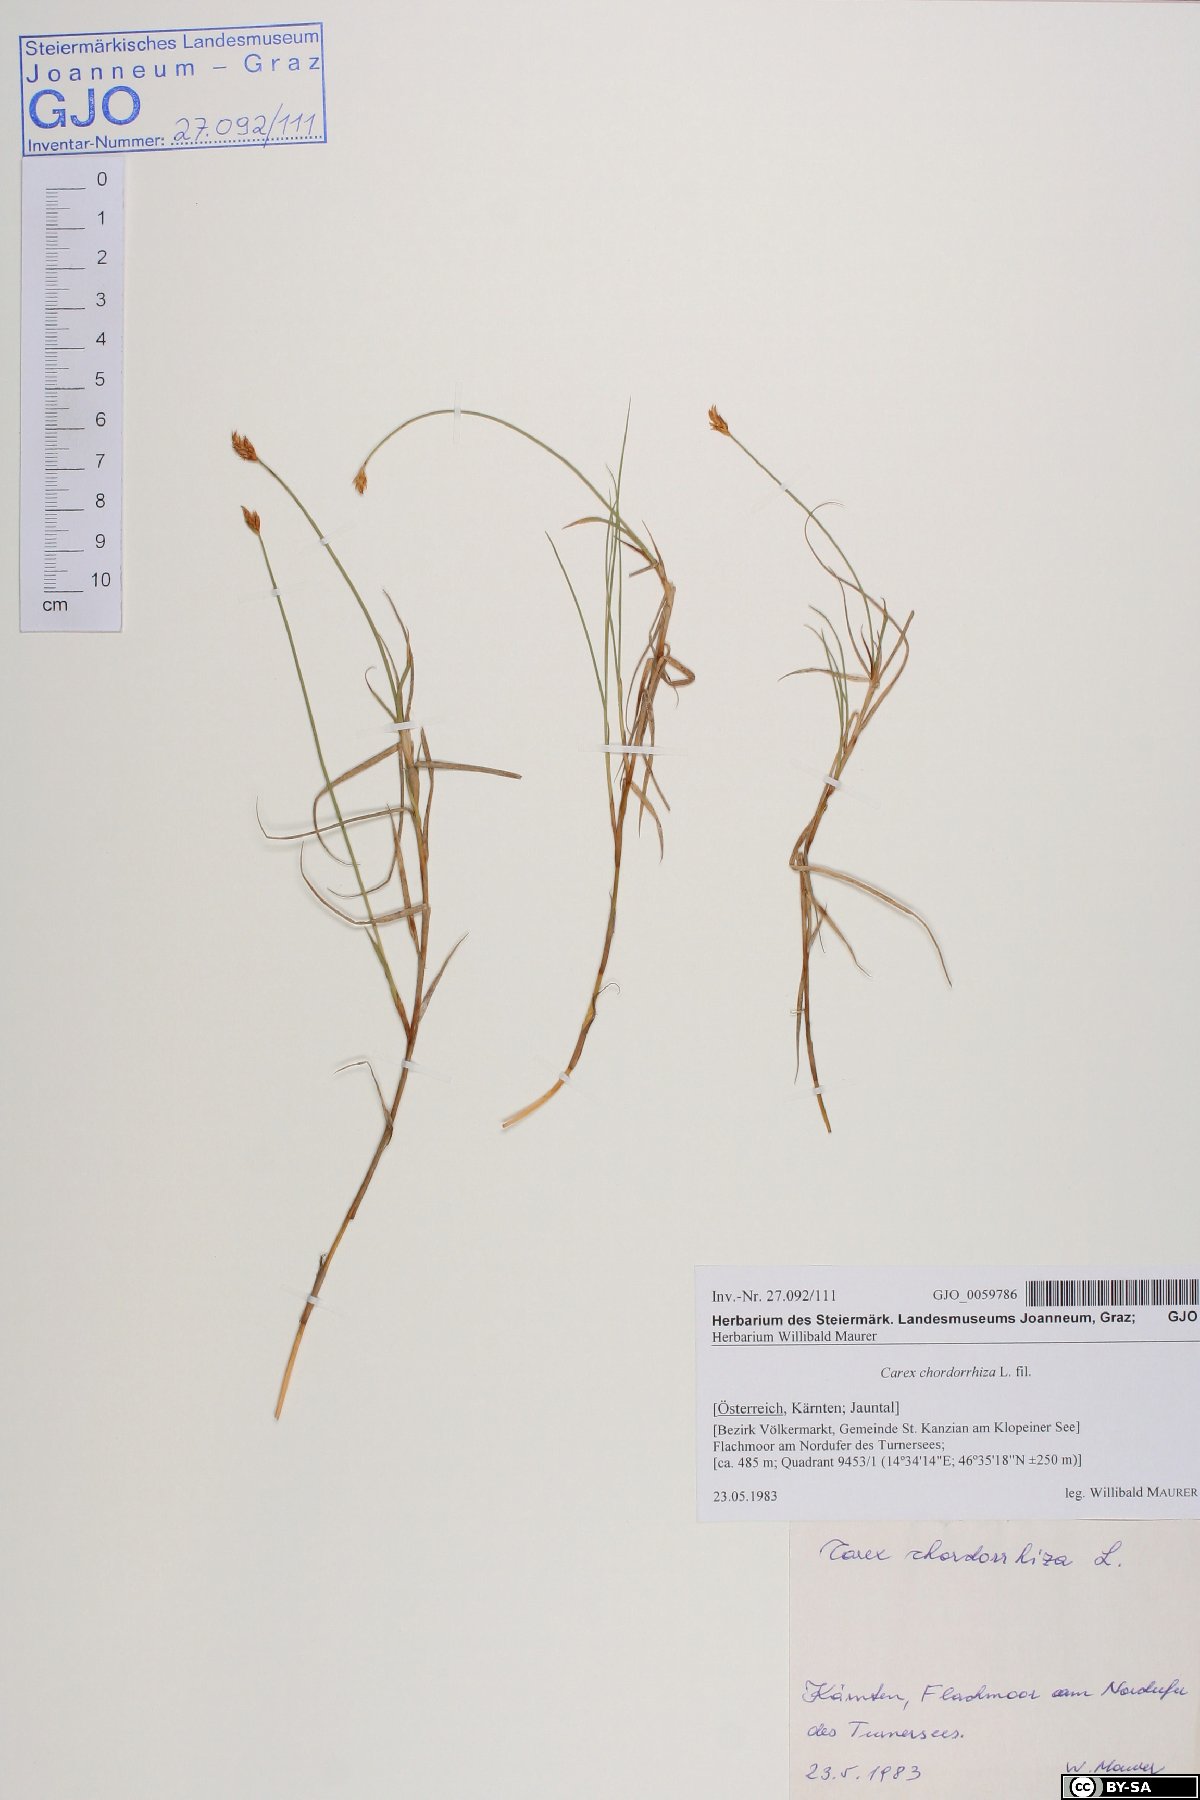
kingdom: Plantae
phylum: Tracheophyta
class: Liliopsida
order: Poales
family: Cyperaceae
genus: Carex
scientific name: Carex chordorrhiza
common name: String sedge
